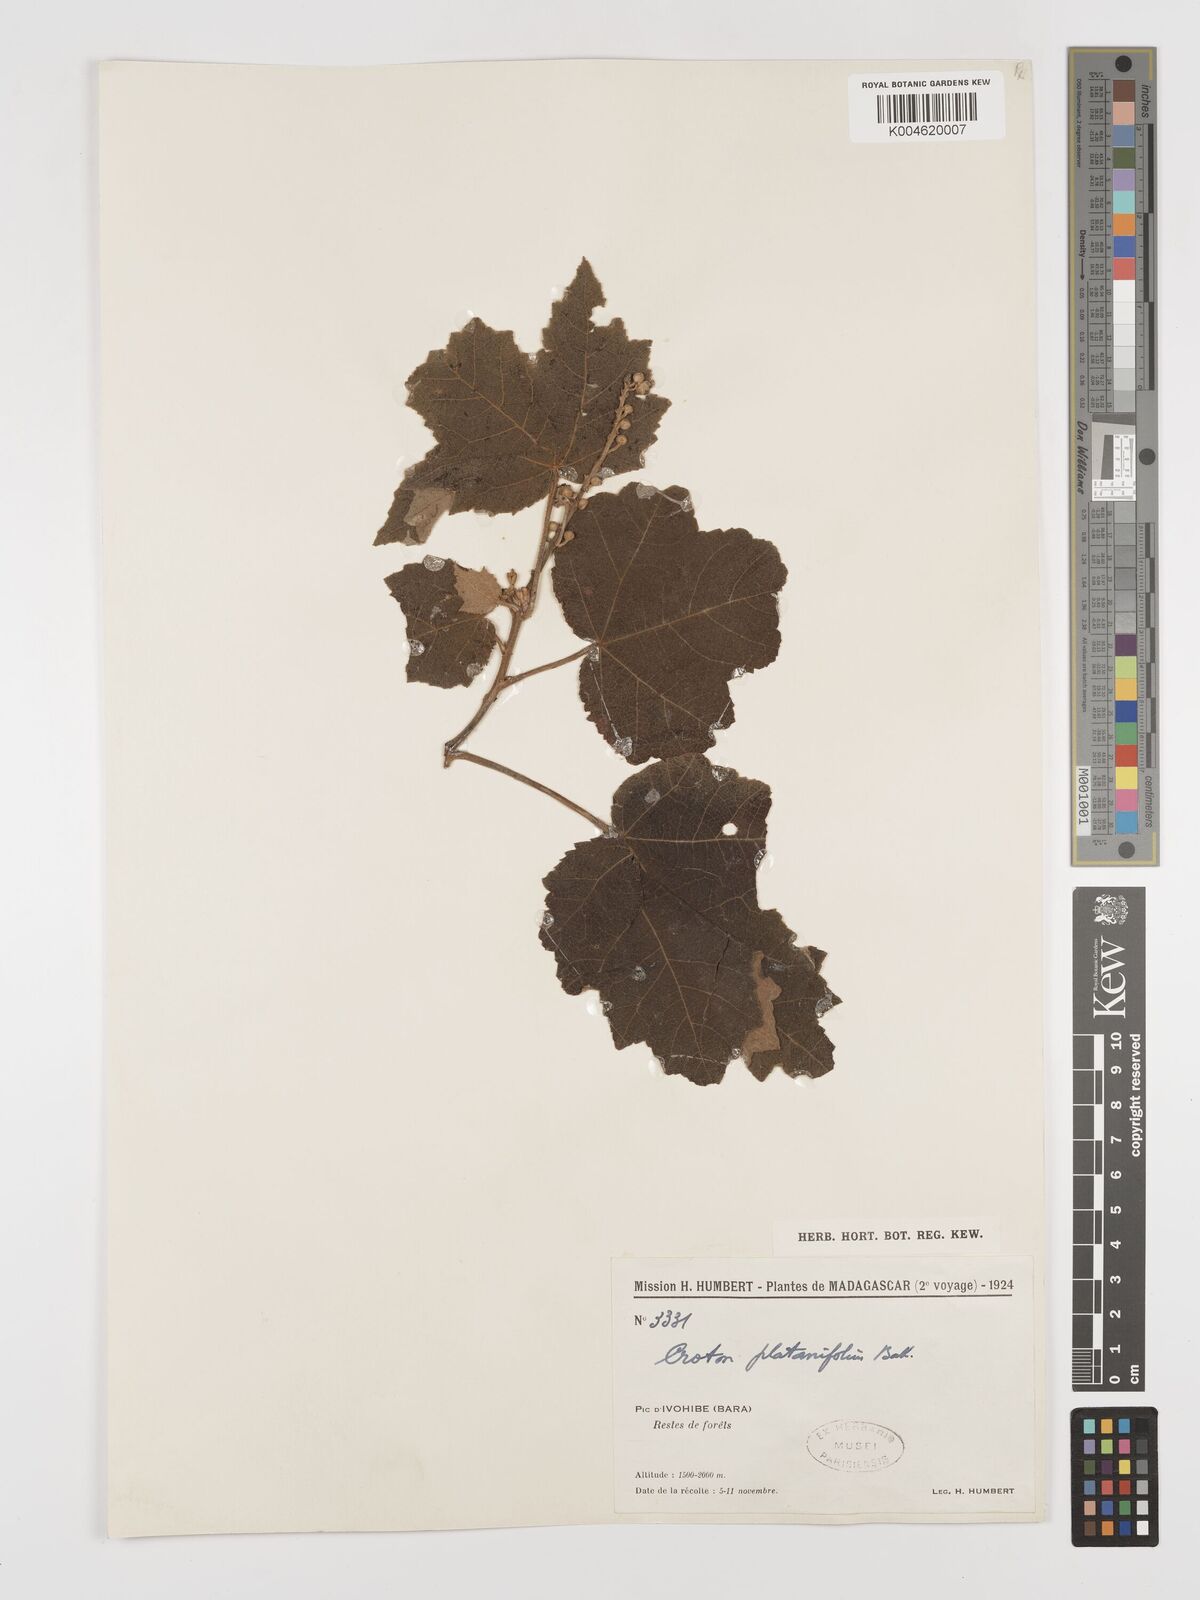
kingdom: Plantae
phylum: Tracheophyta
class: Magnoliopsida
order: Malpighiales
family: Euphorbiaceae
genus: Croton
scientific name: Croton goudotii
